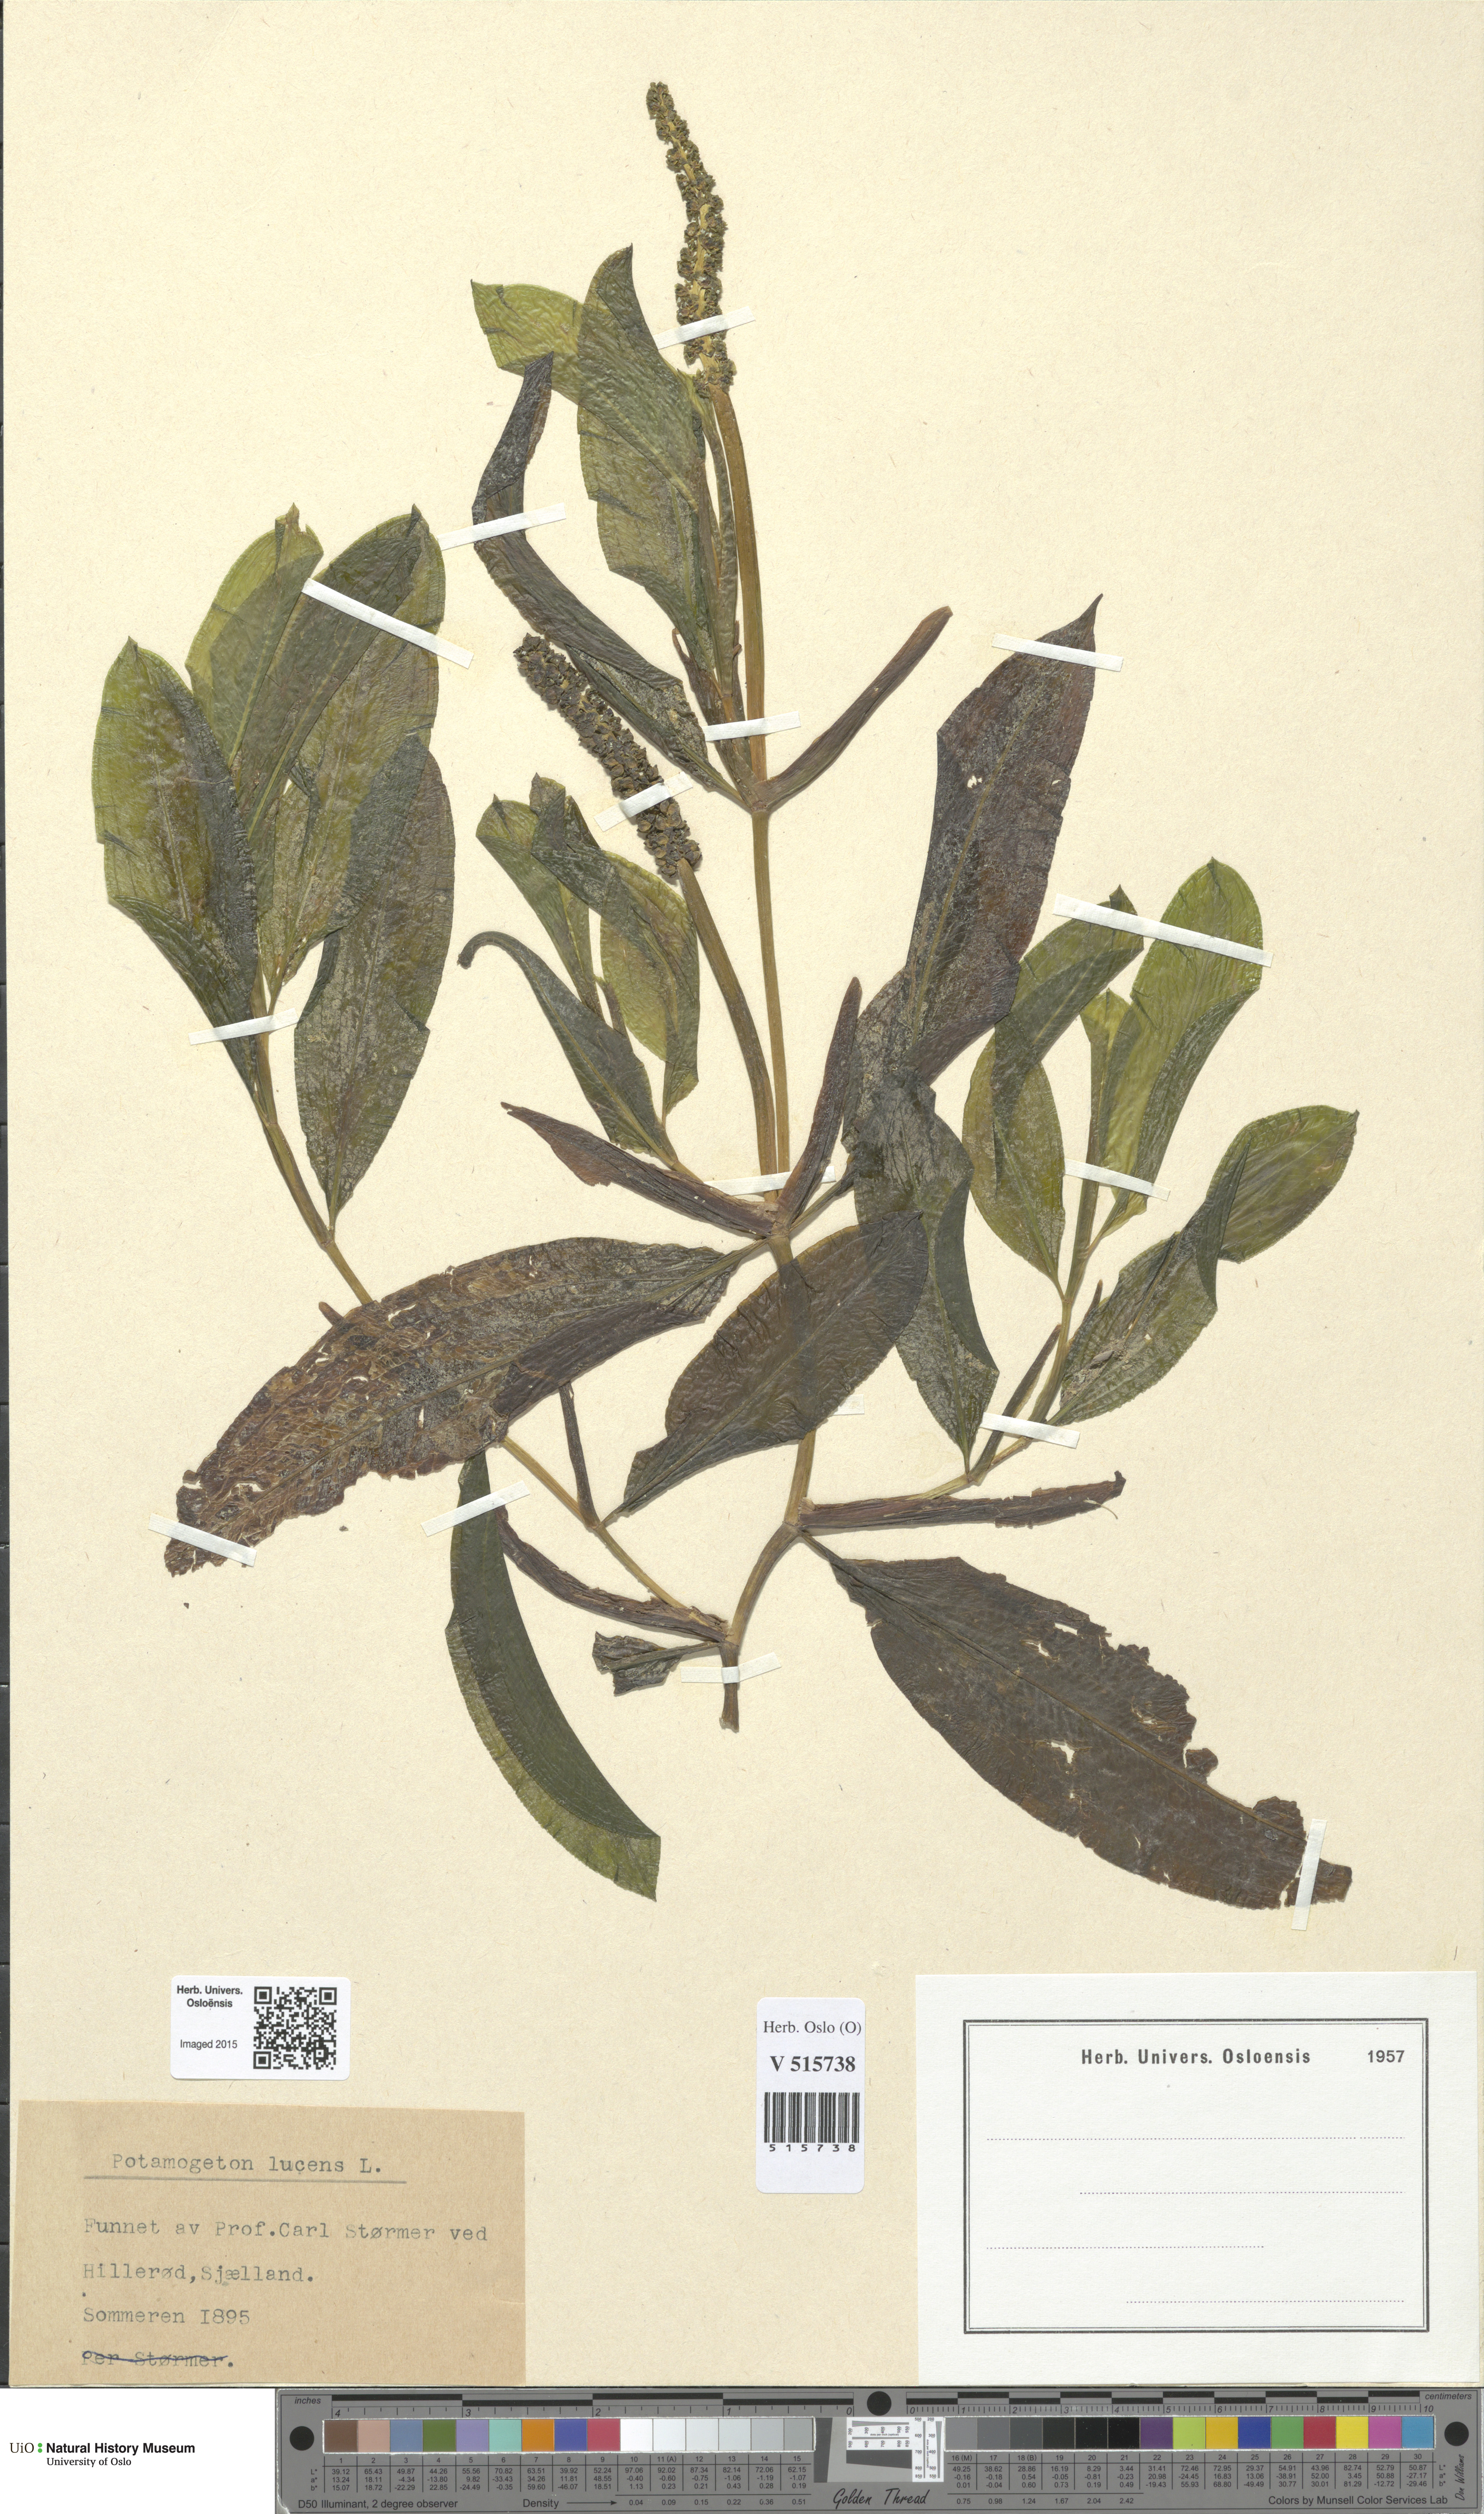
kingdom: Plantae
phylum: Tracheophyta
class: Liliopsida
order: Alismatales
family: Potamogetonaceae
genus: Potamogeton
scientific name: Potamogeton lucens
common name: Shining pondweed
